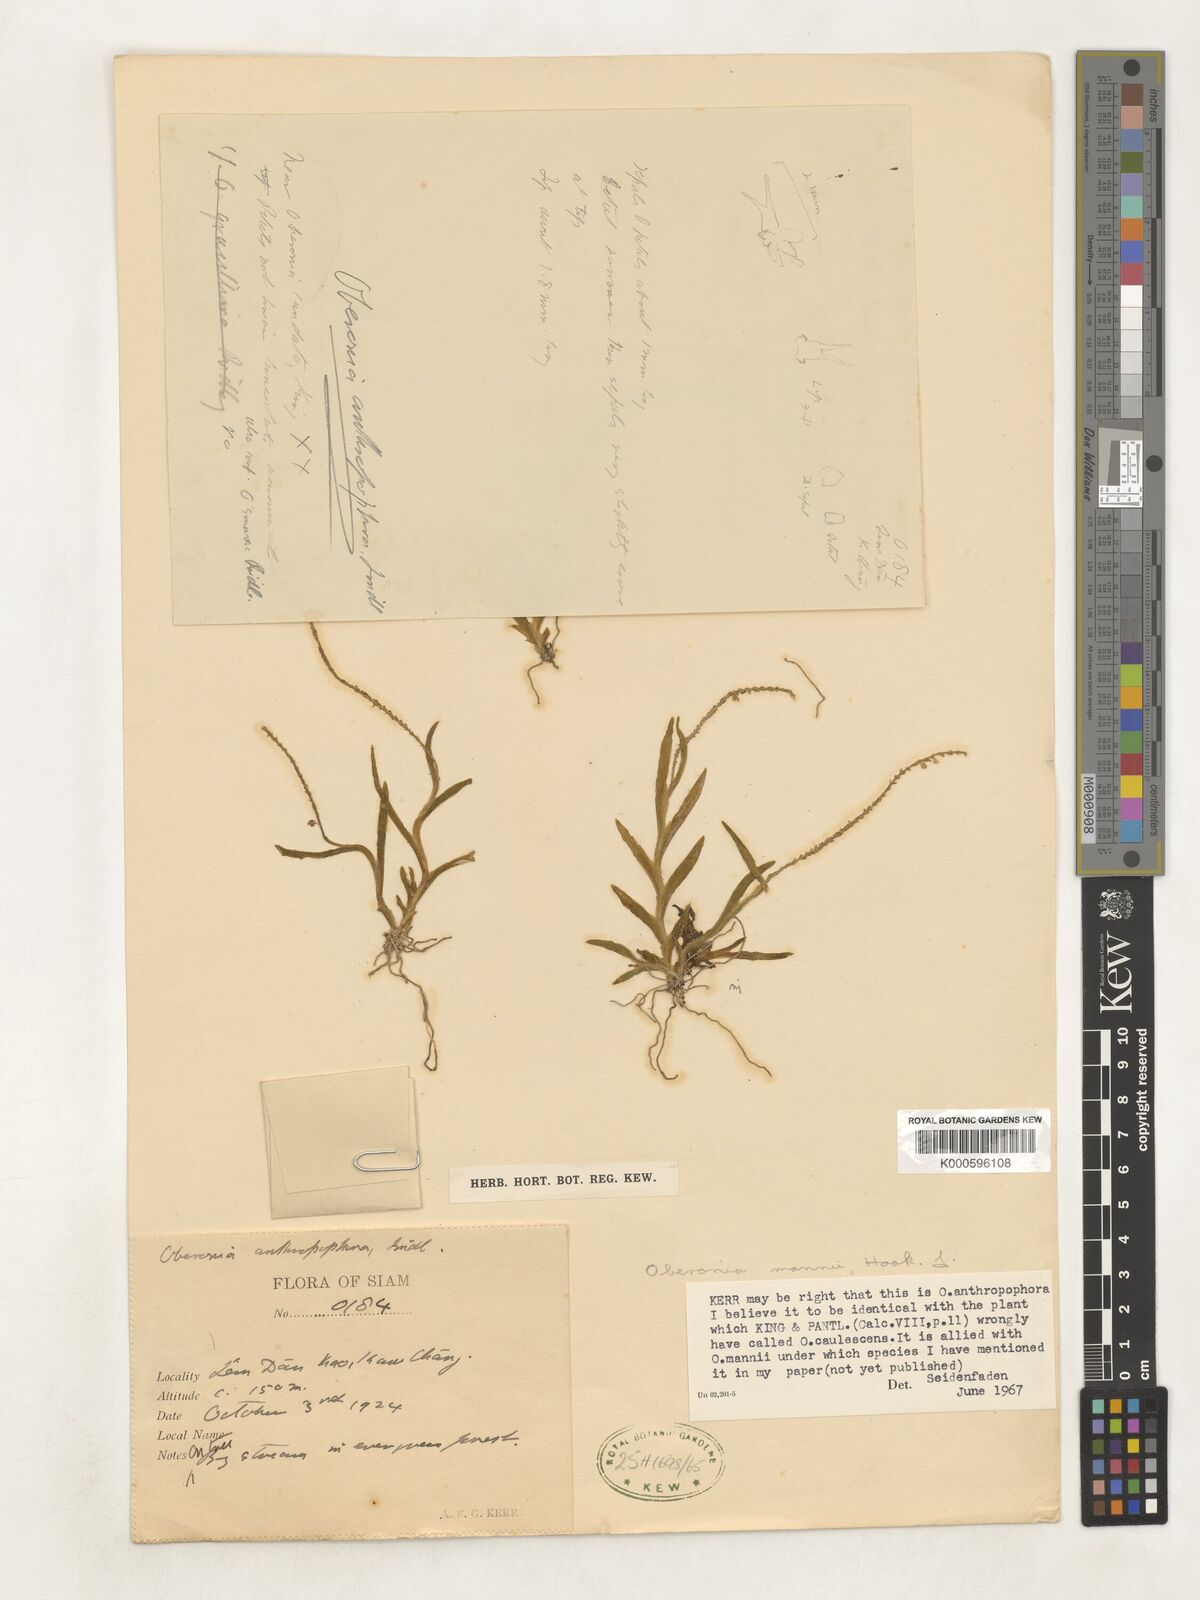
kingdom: Plantae
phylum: Tracheophyta
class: Liliopsida
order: Asparagales
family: Orchidaceae
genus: Oberonia
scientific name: Oberonia mannii
